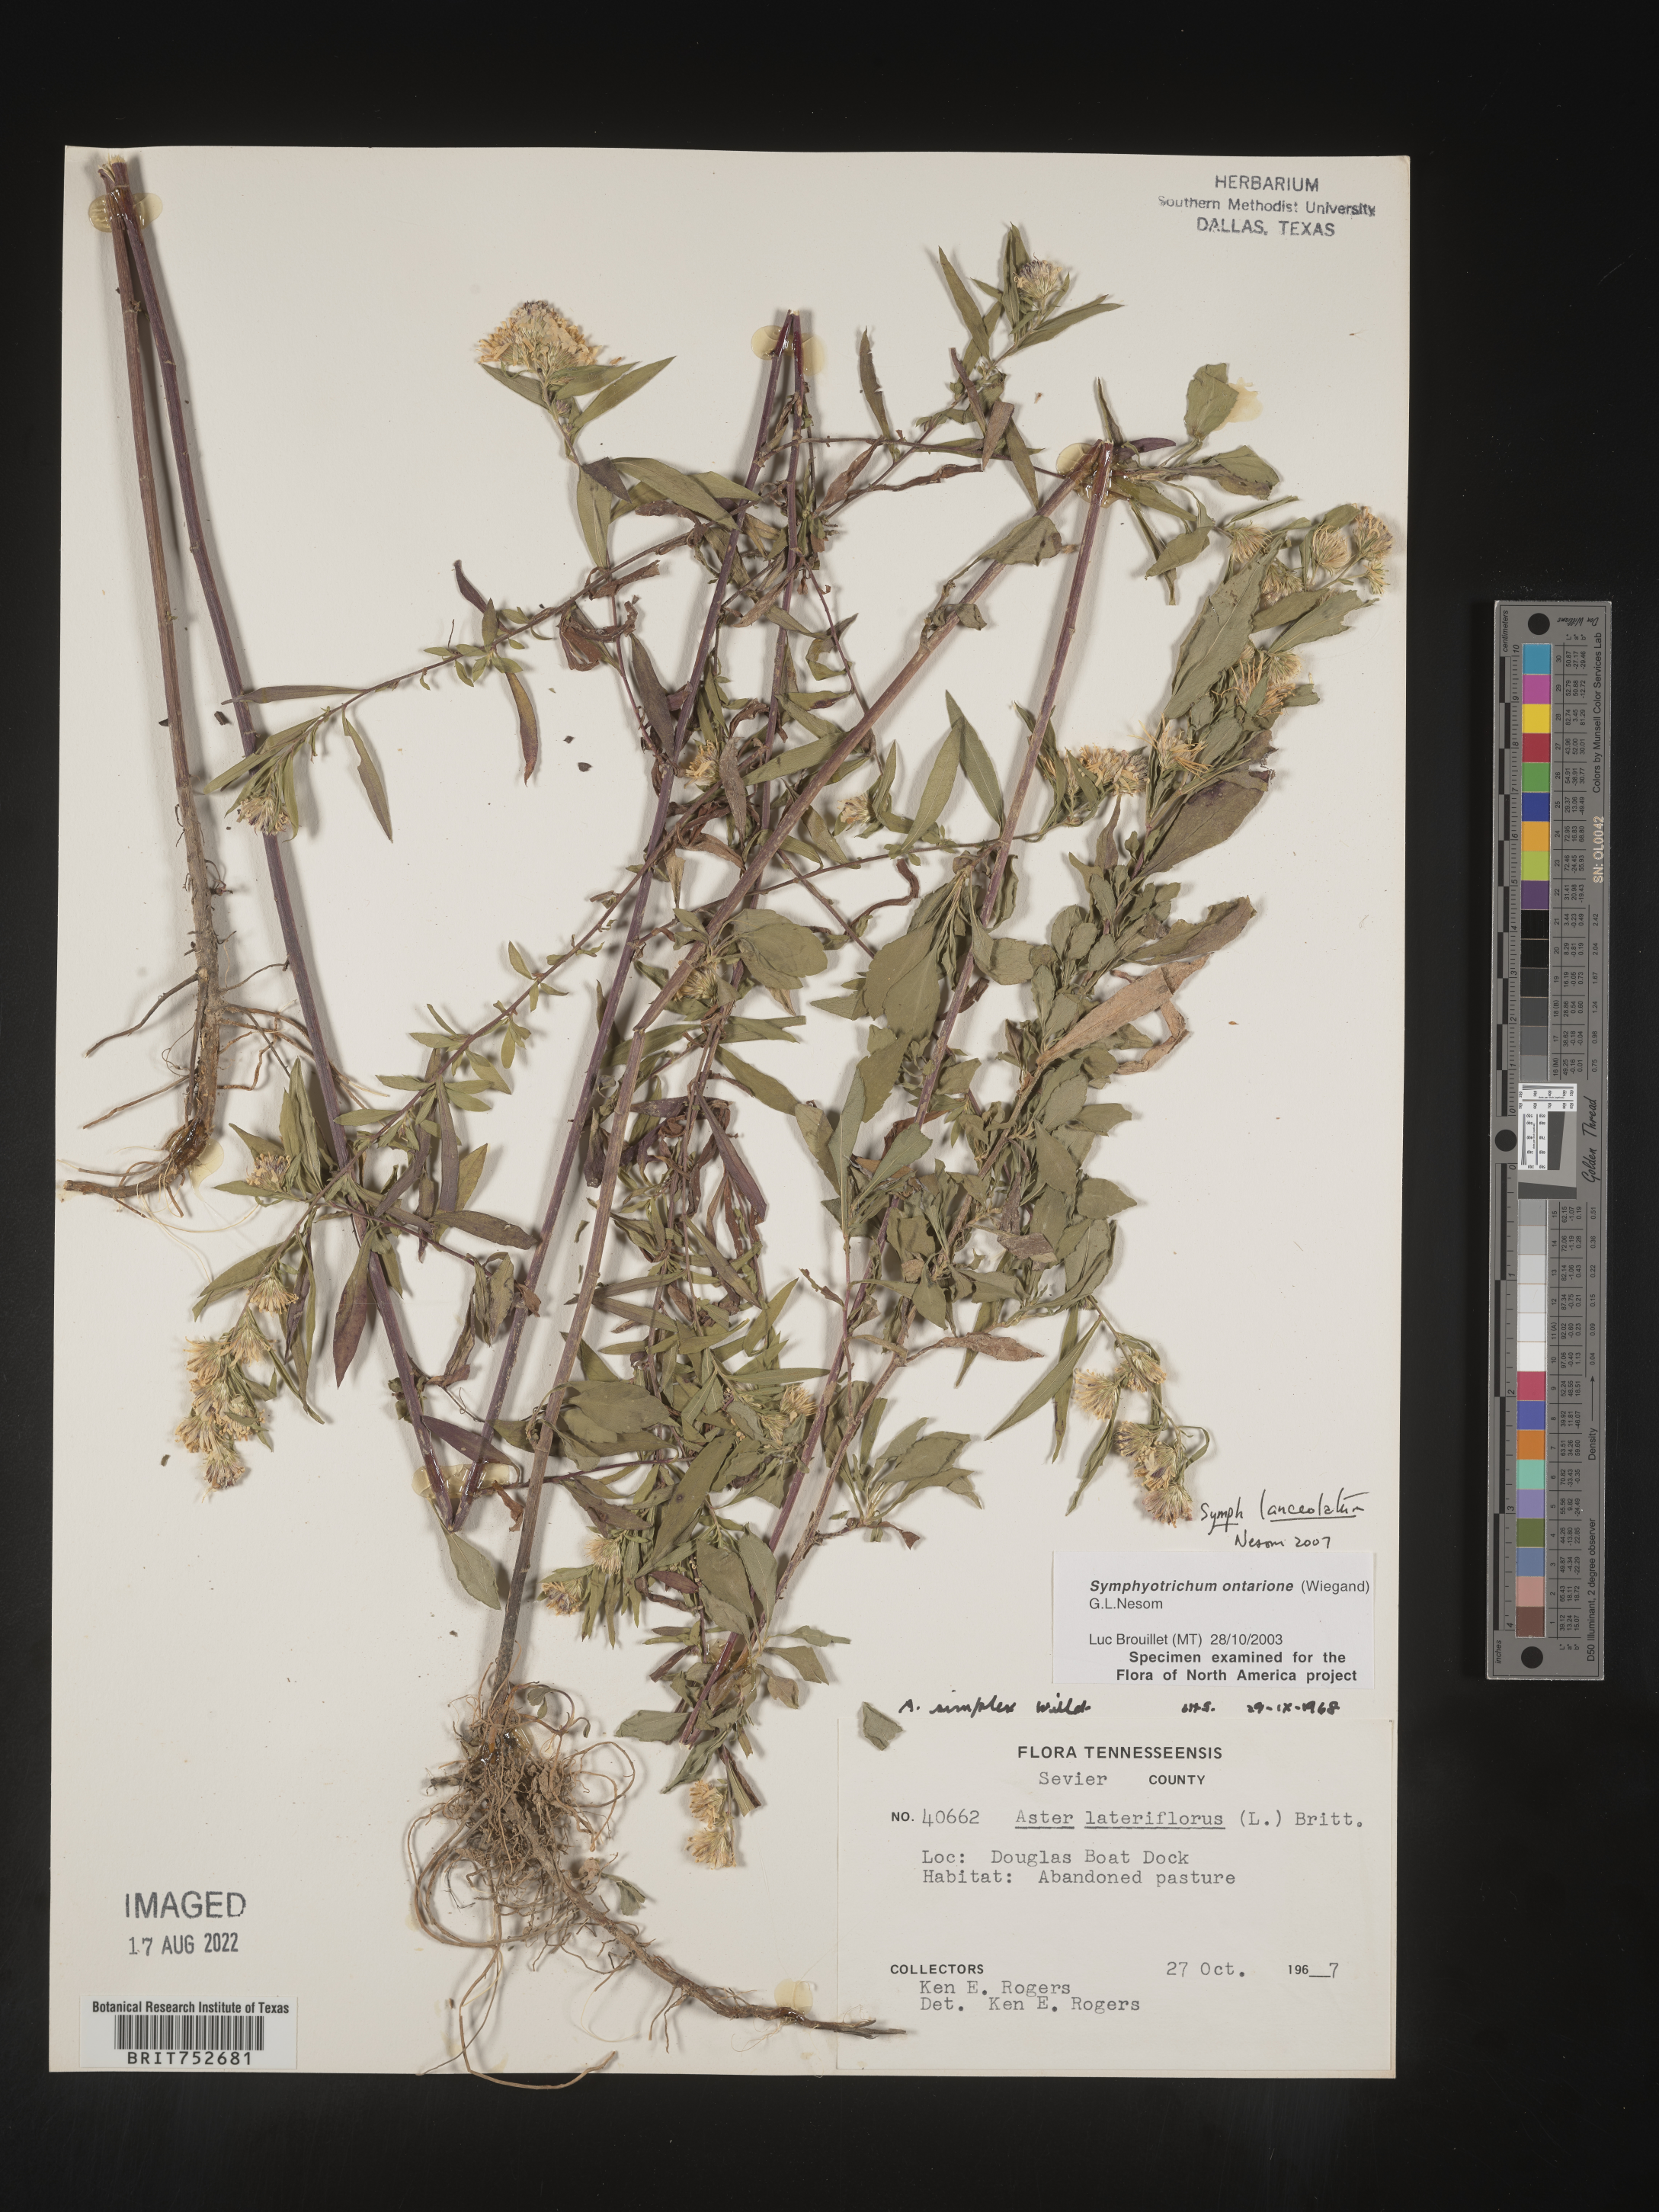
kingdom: Plantae
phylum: Tracheophyta
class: Magnoliopsida
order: Asterales
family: Asteraceae
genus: Symphyotrichum
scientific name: Symphyotrichum lanceolatum
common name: Panicled aster
